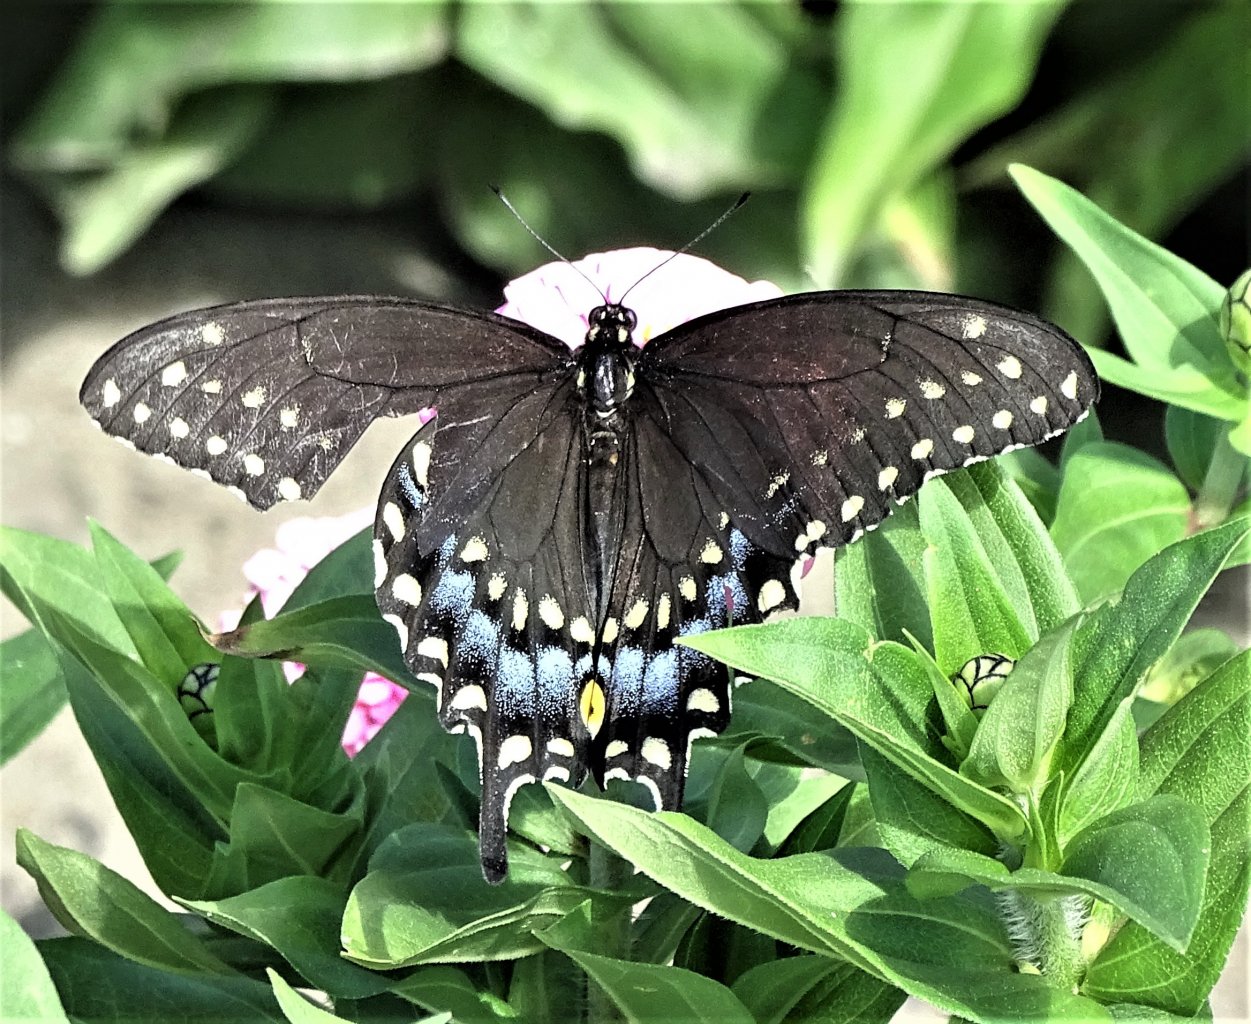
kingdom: Animalia
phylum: Arthropoda
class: Insecta
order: Lepidoptera
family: Papilionidae
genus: Papilio
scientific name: Papilio polyxenes
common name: Black Swallowtail
